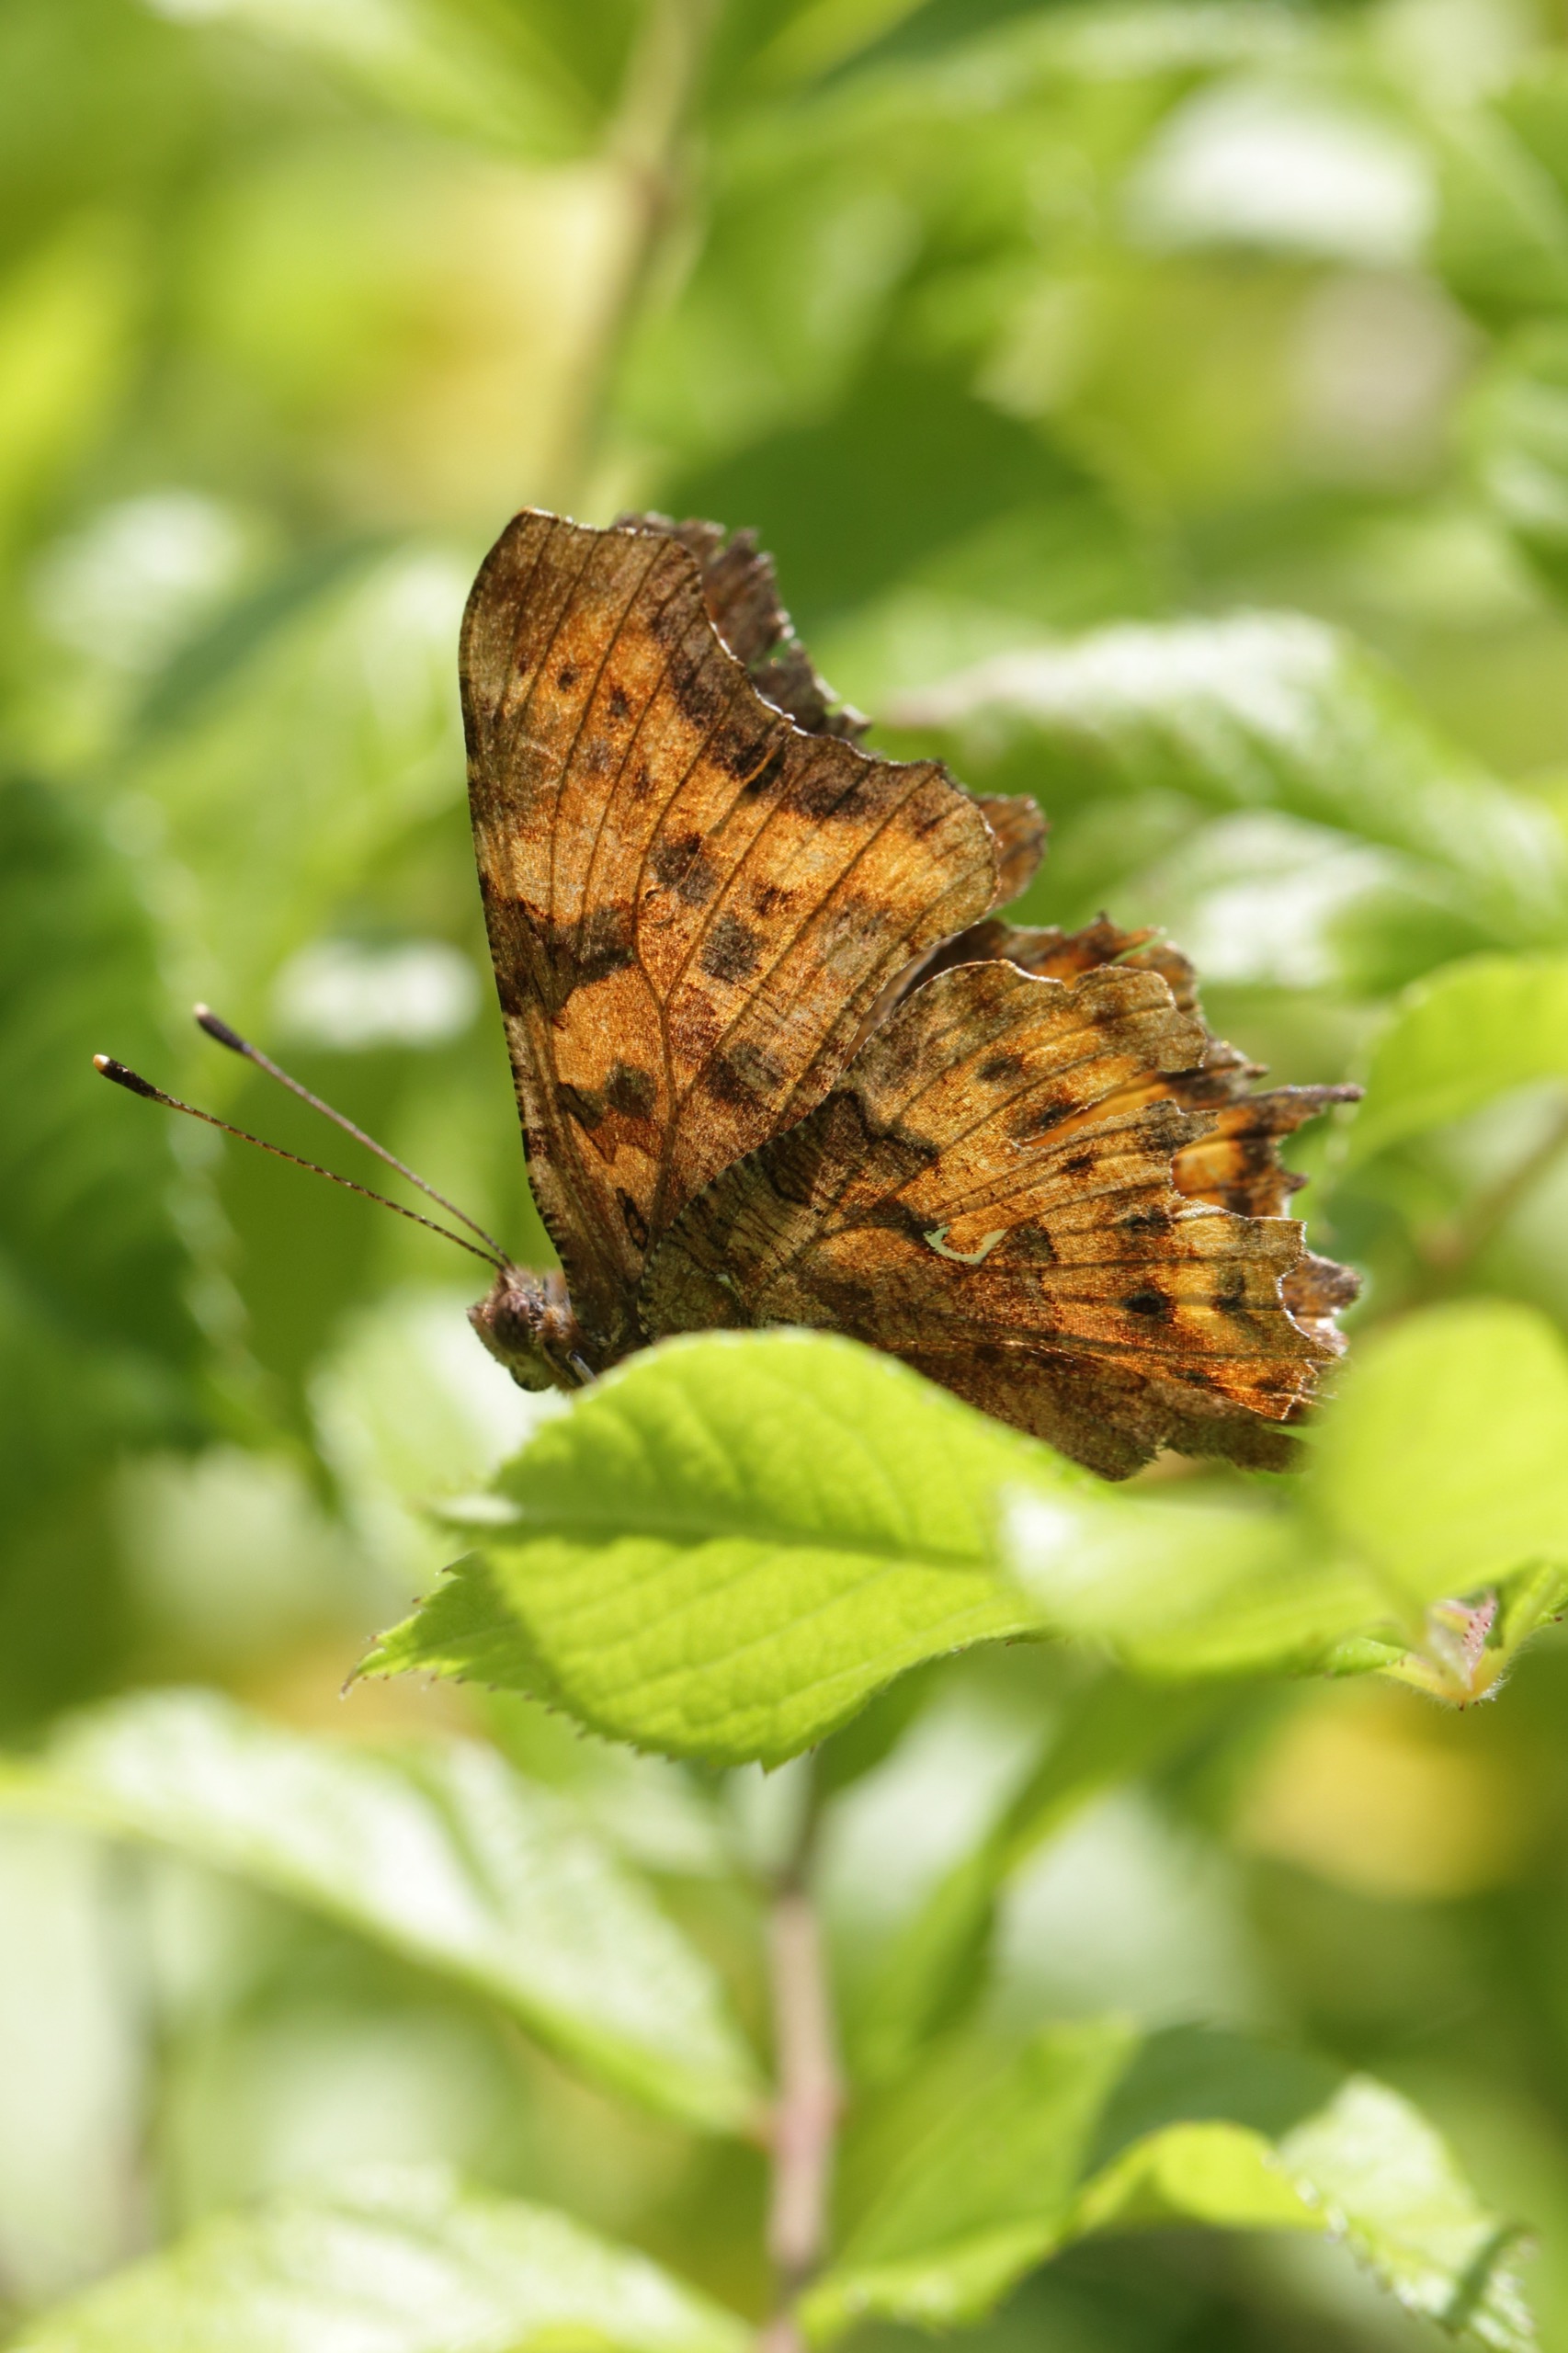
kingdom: Animalia
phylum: Arthropoda
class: Insecta
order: Lepidoptera
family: Nymphalidae
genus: Polygonia
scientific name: Polygonia c-album
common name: Det hvide C
